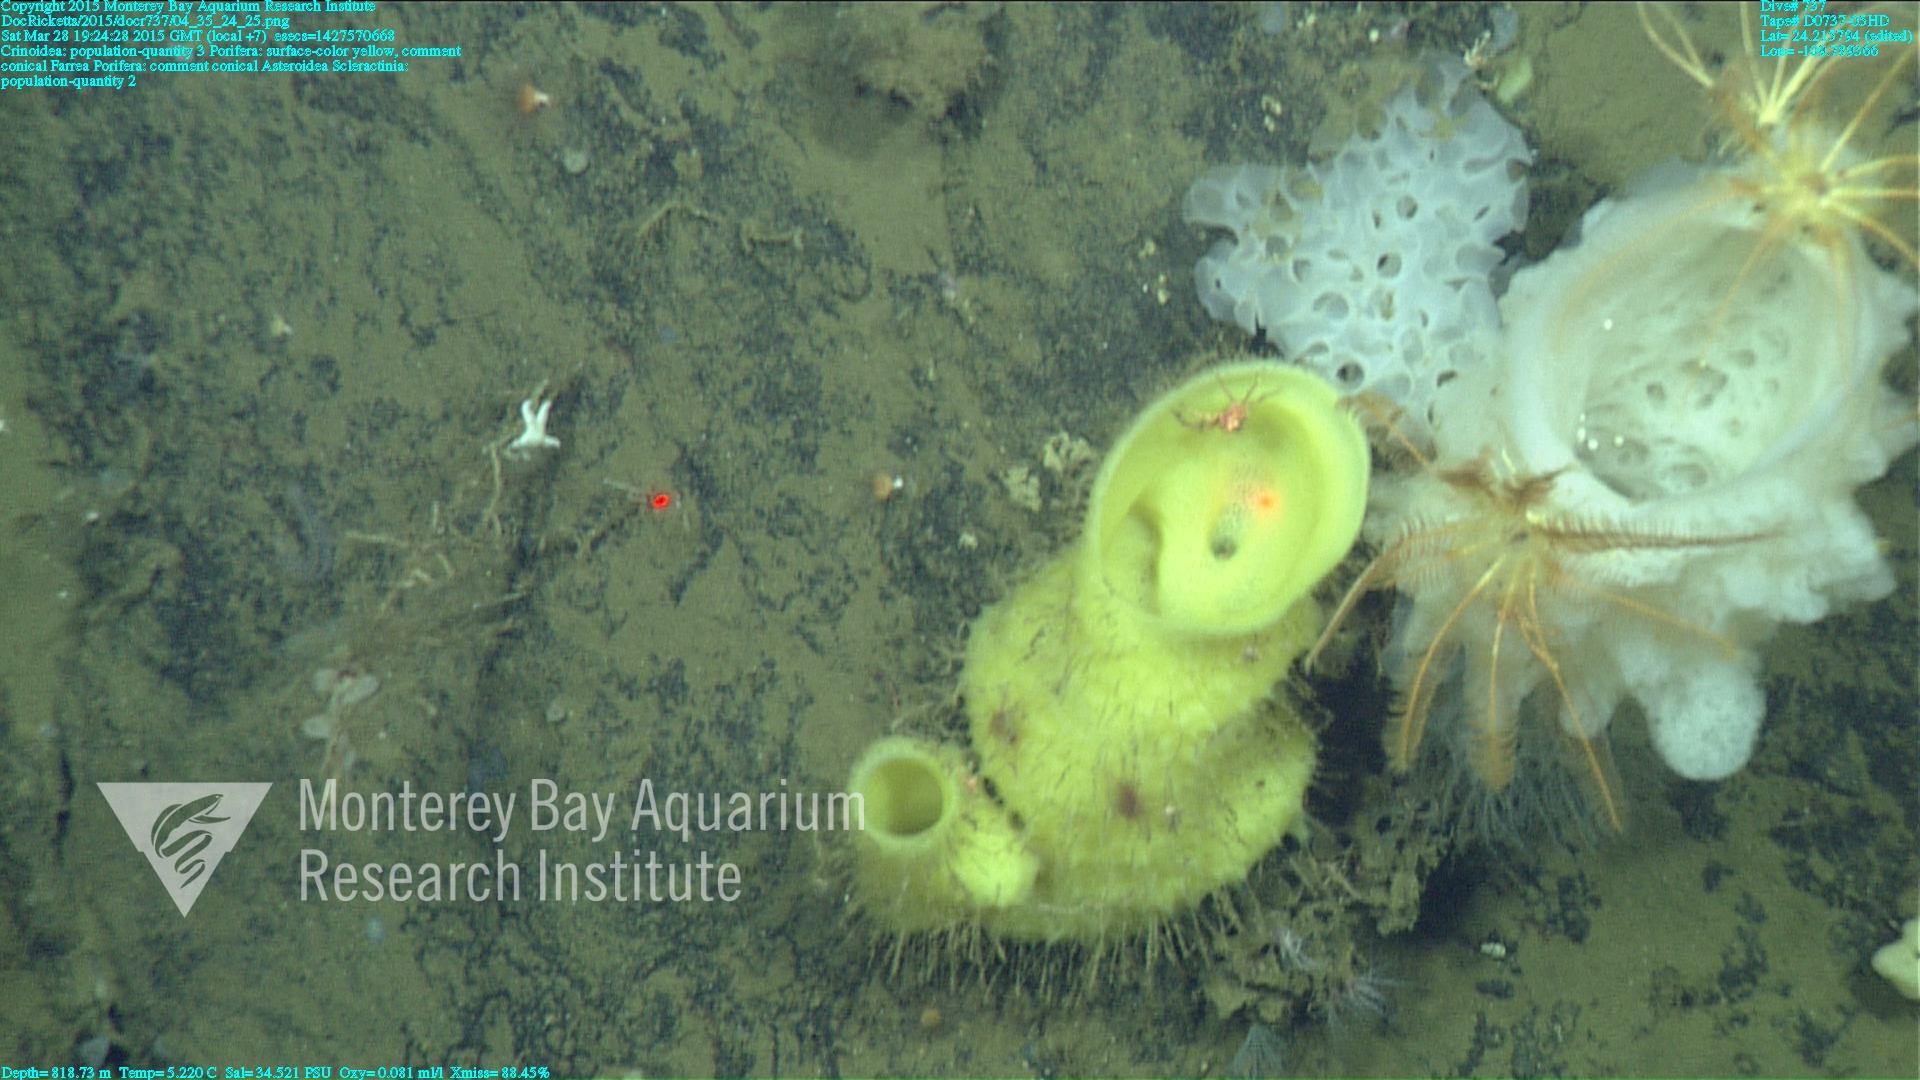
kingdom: Animalia
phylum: Cnidaria
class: Anthozoa
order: Scleractinia
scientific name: Scleractinia
